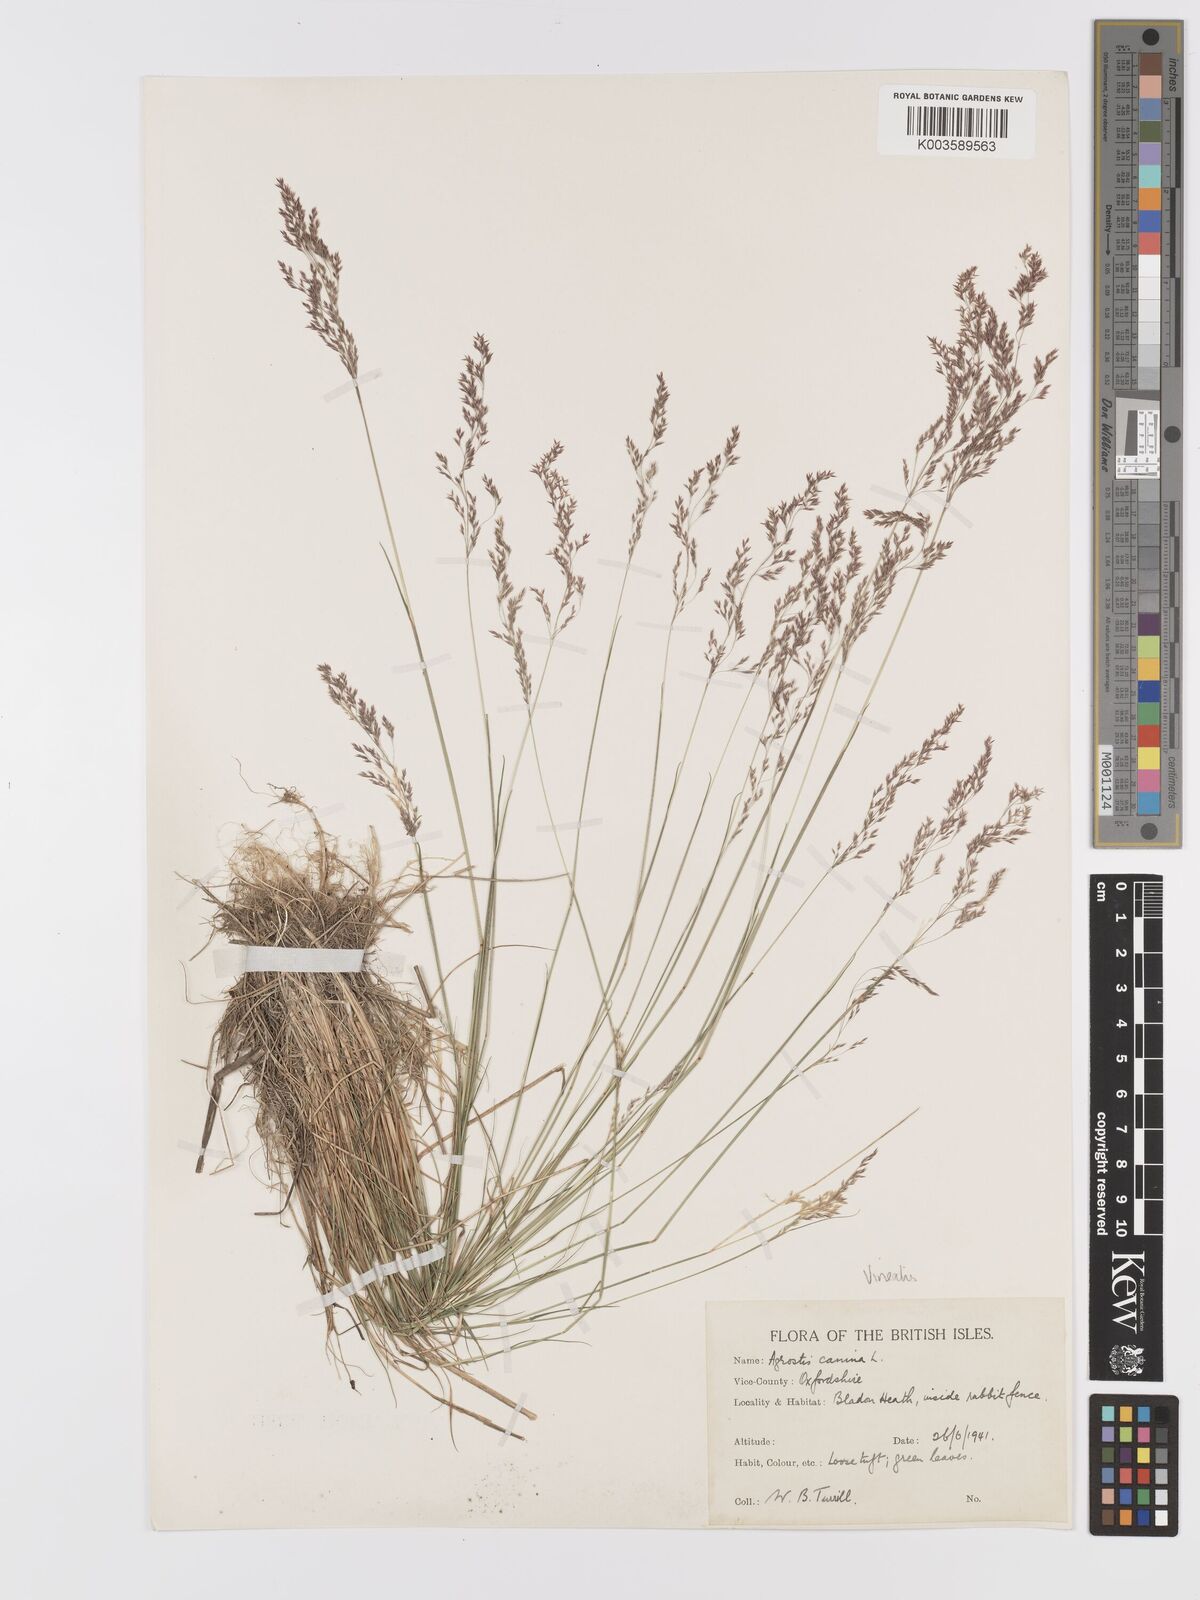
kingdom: Plantae
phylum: Tracheophyta
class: Liliopsida
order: Poales
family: Poaceae
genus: Agrostis
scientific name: Agrostis
